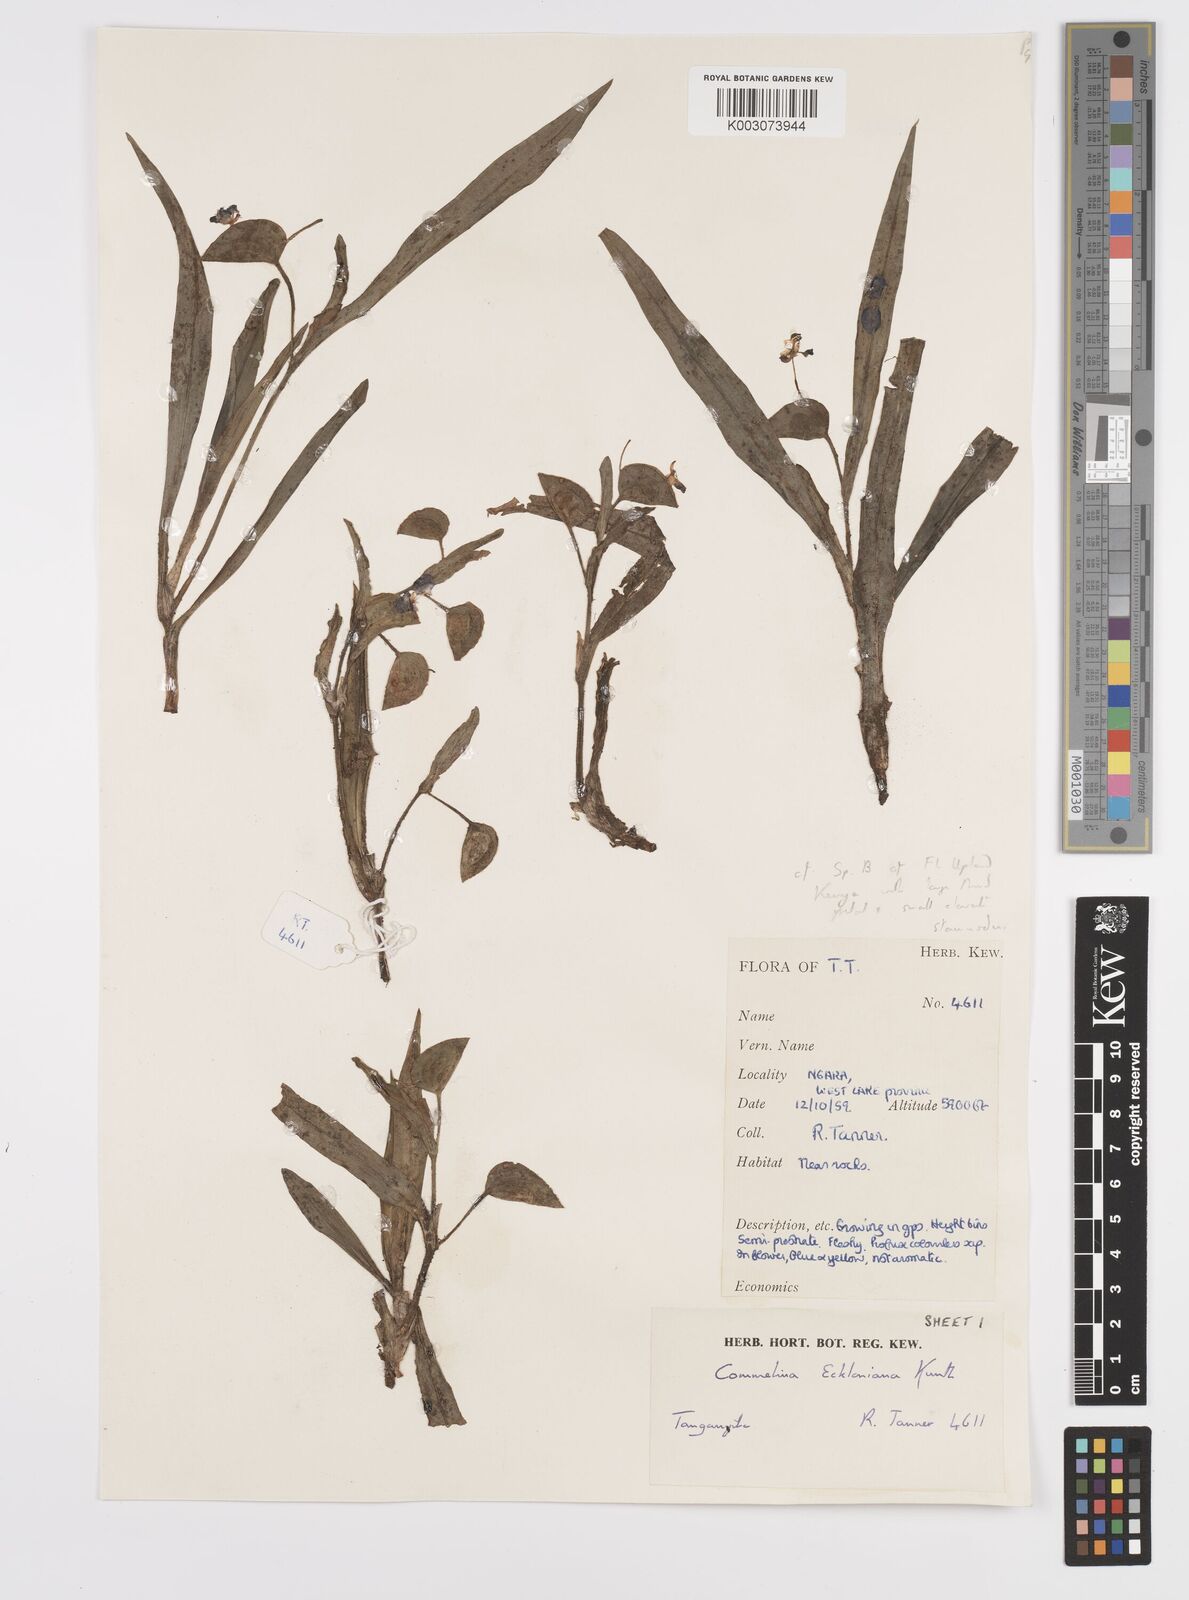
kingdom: Plantae
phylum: Tracheophyta
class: Liliopsida
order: Commelinales
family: Commelinaceae
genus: Commelina
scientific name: Commelina eckloniana
